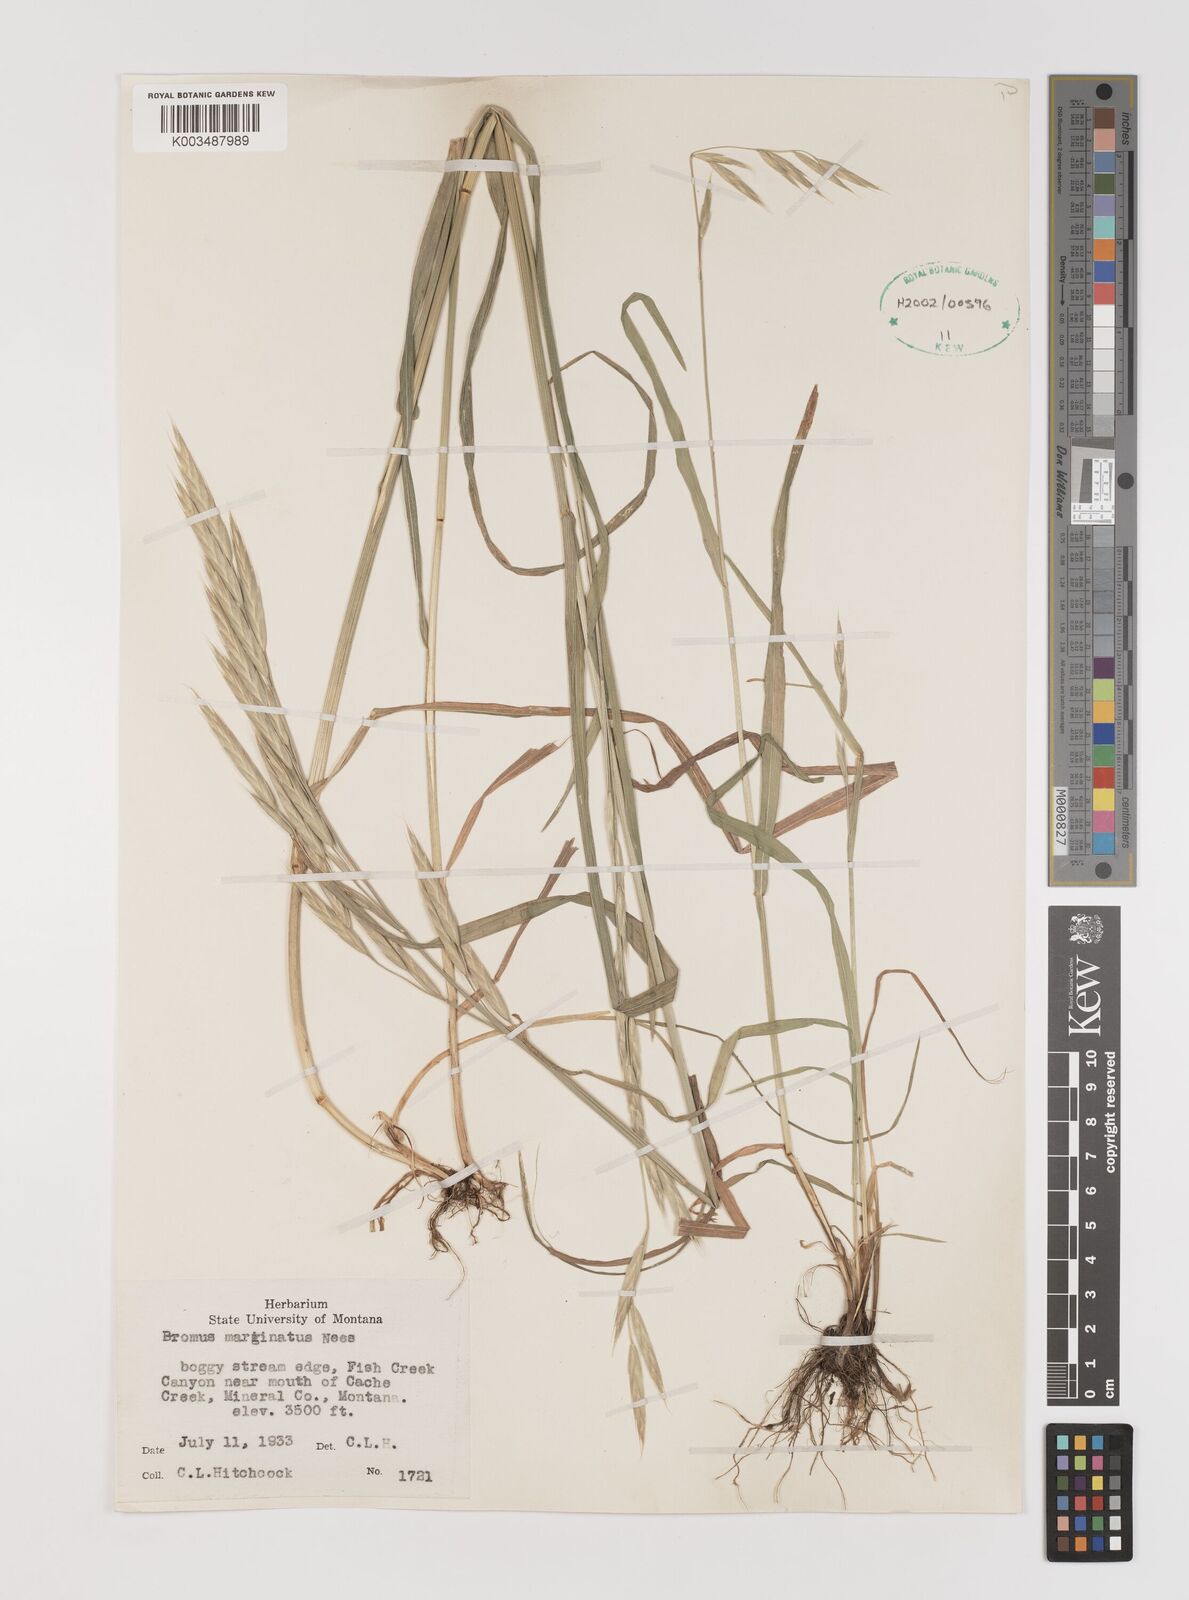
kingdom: Plantae
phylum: Tracheophyta
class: Liliopsida
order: Poales
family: Poaceae
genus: Bromus
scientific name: Bromus marginatus
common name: Western brome
